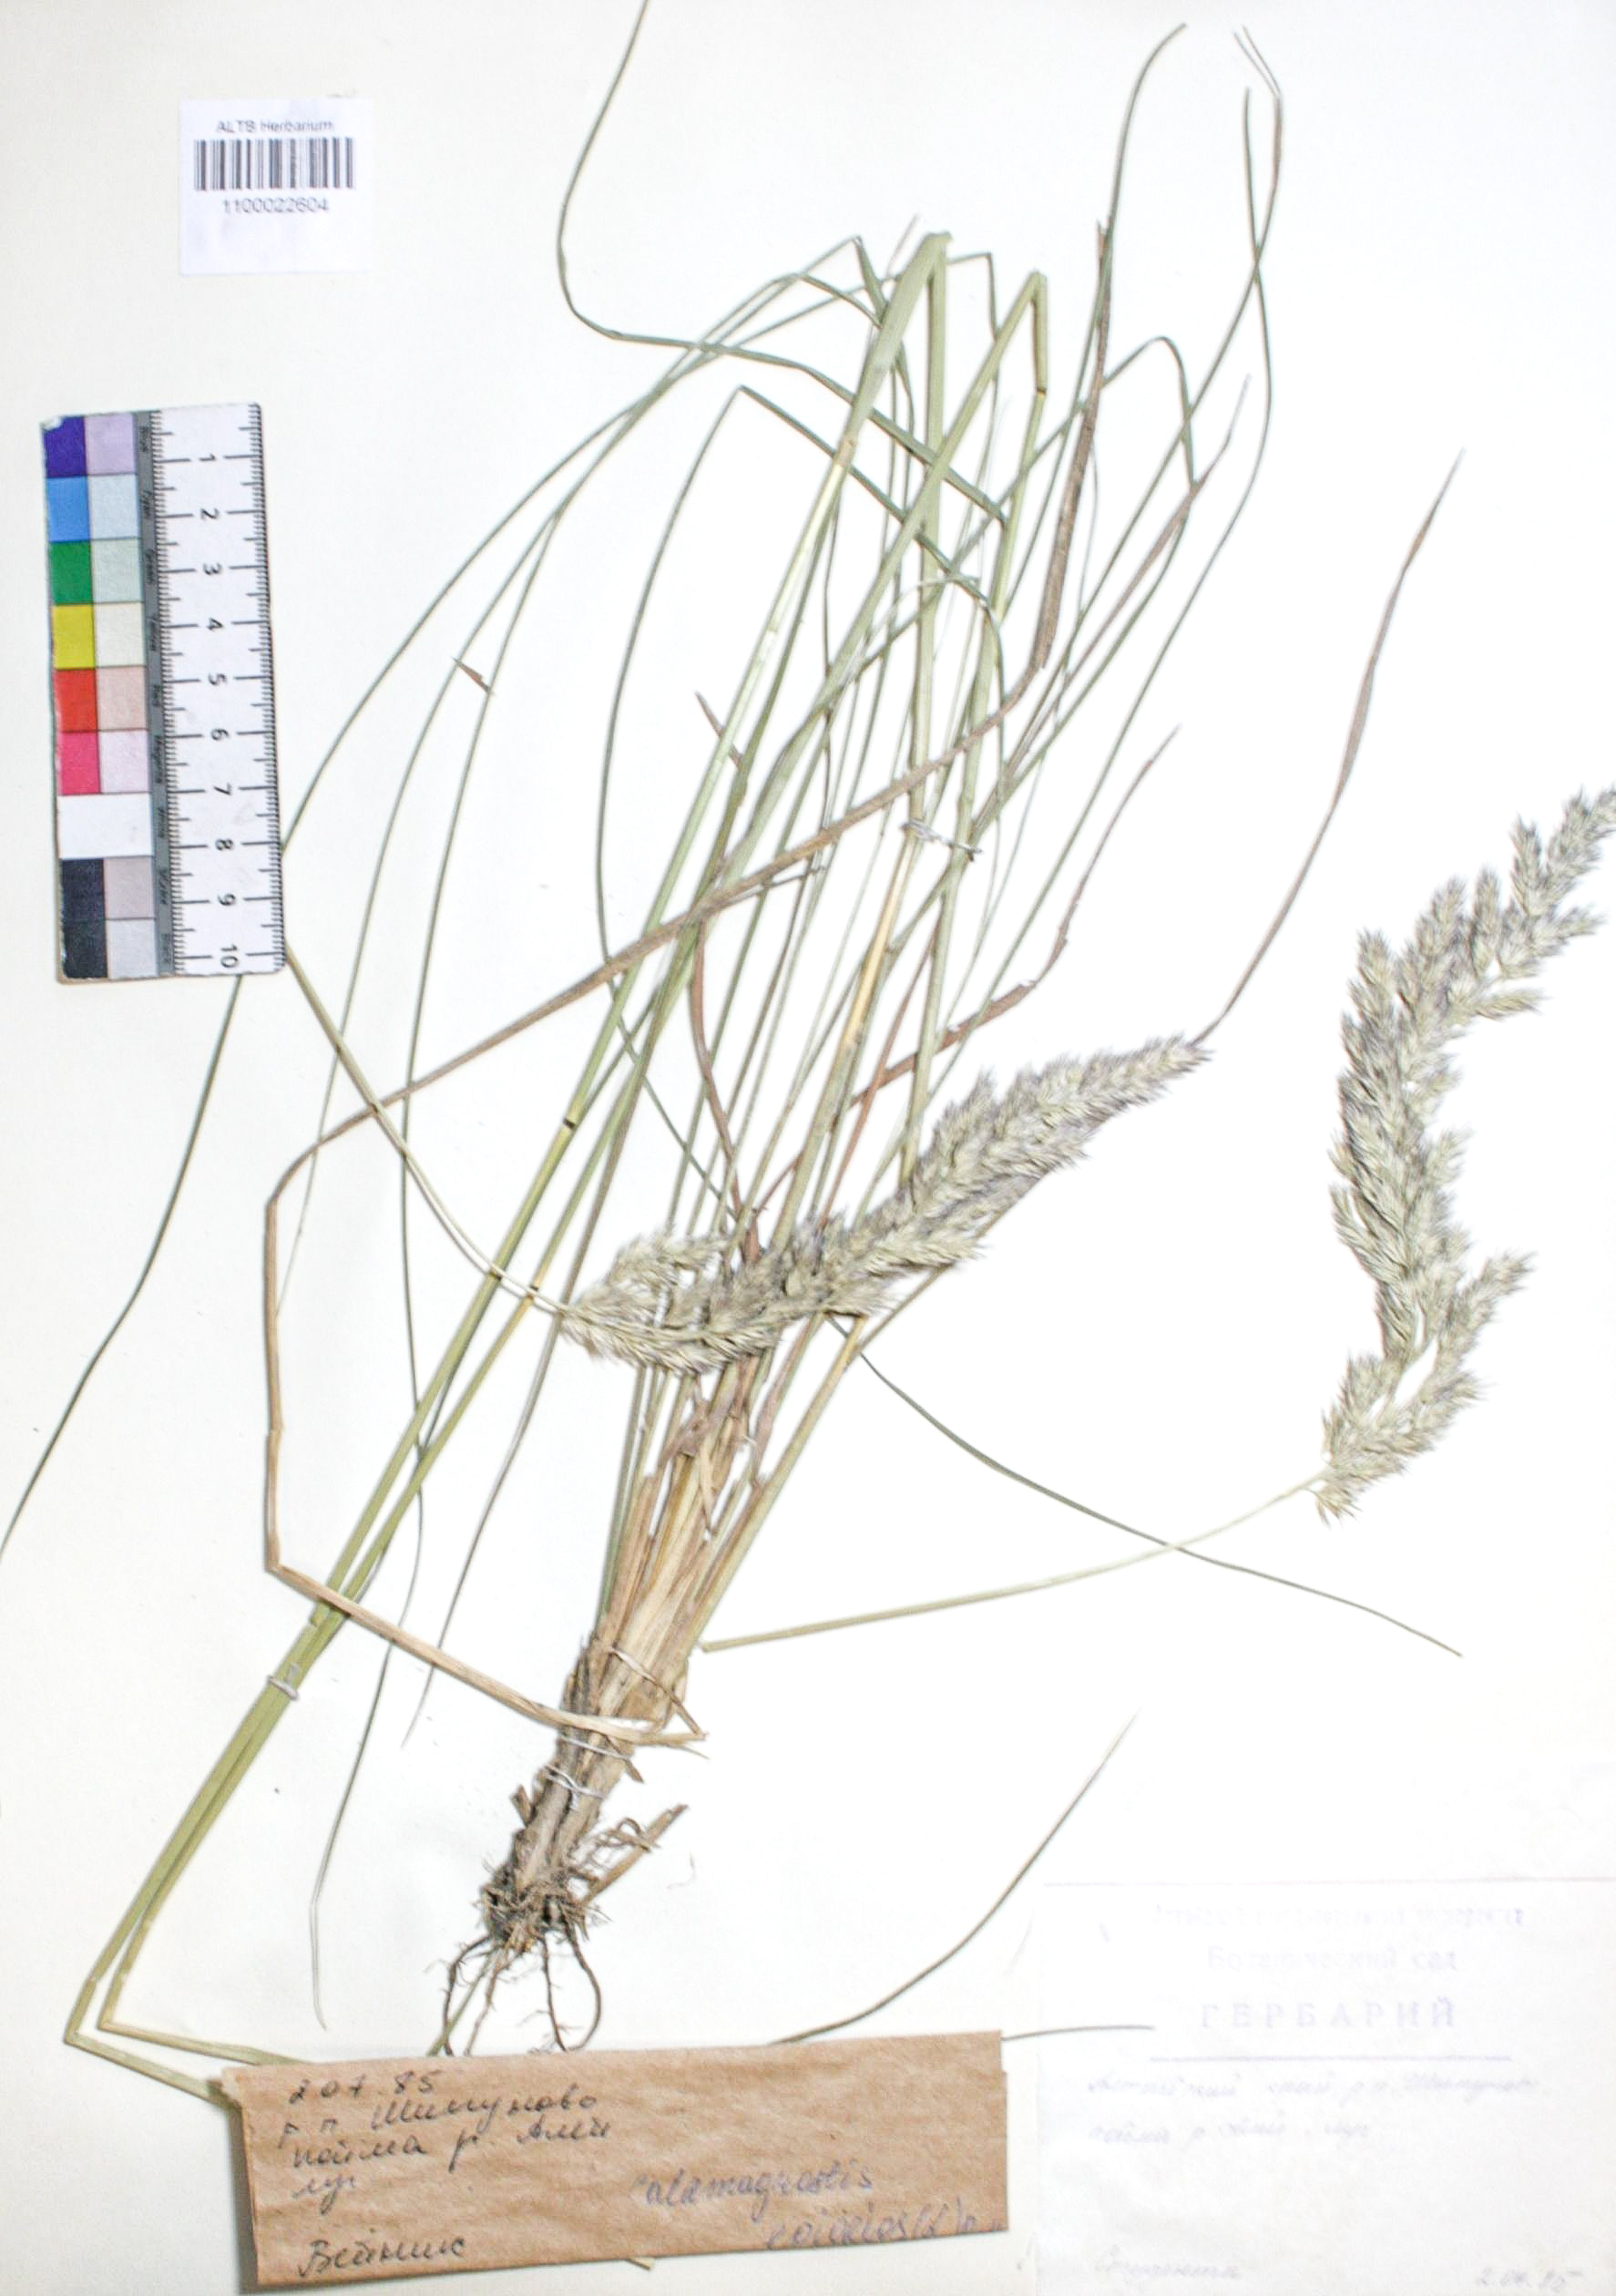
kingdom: Plantae
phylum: Tracheophyta
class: Liliopsida
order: Poales
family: Poaceae
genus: Calamagrostis
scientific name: Calamagrostis epigejos
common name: Wood small-reed
